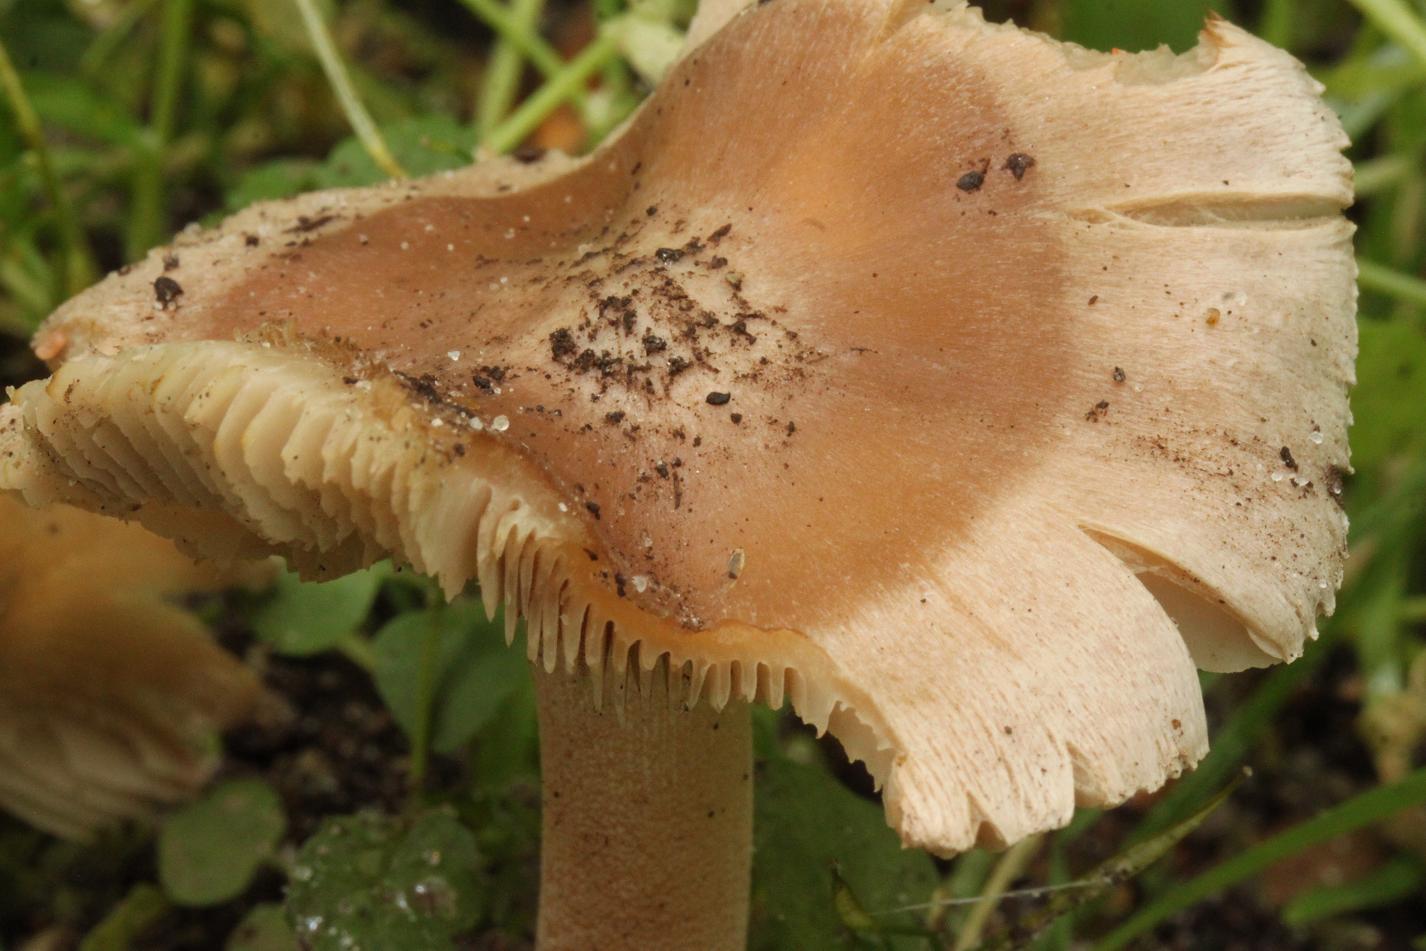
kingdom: Fungi
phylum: Basidiomycota
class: Agaricomycetes
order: Agaricales
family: Inocybaceae
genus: Inocybe
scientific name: Inocybe grammata
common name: lystoppet trævlhat
